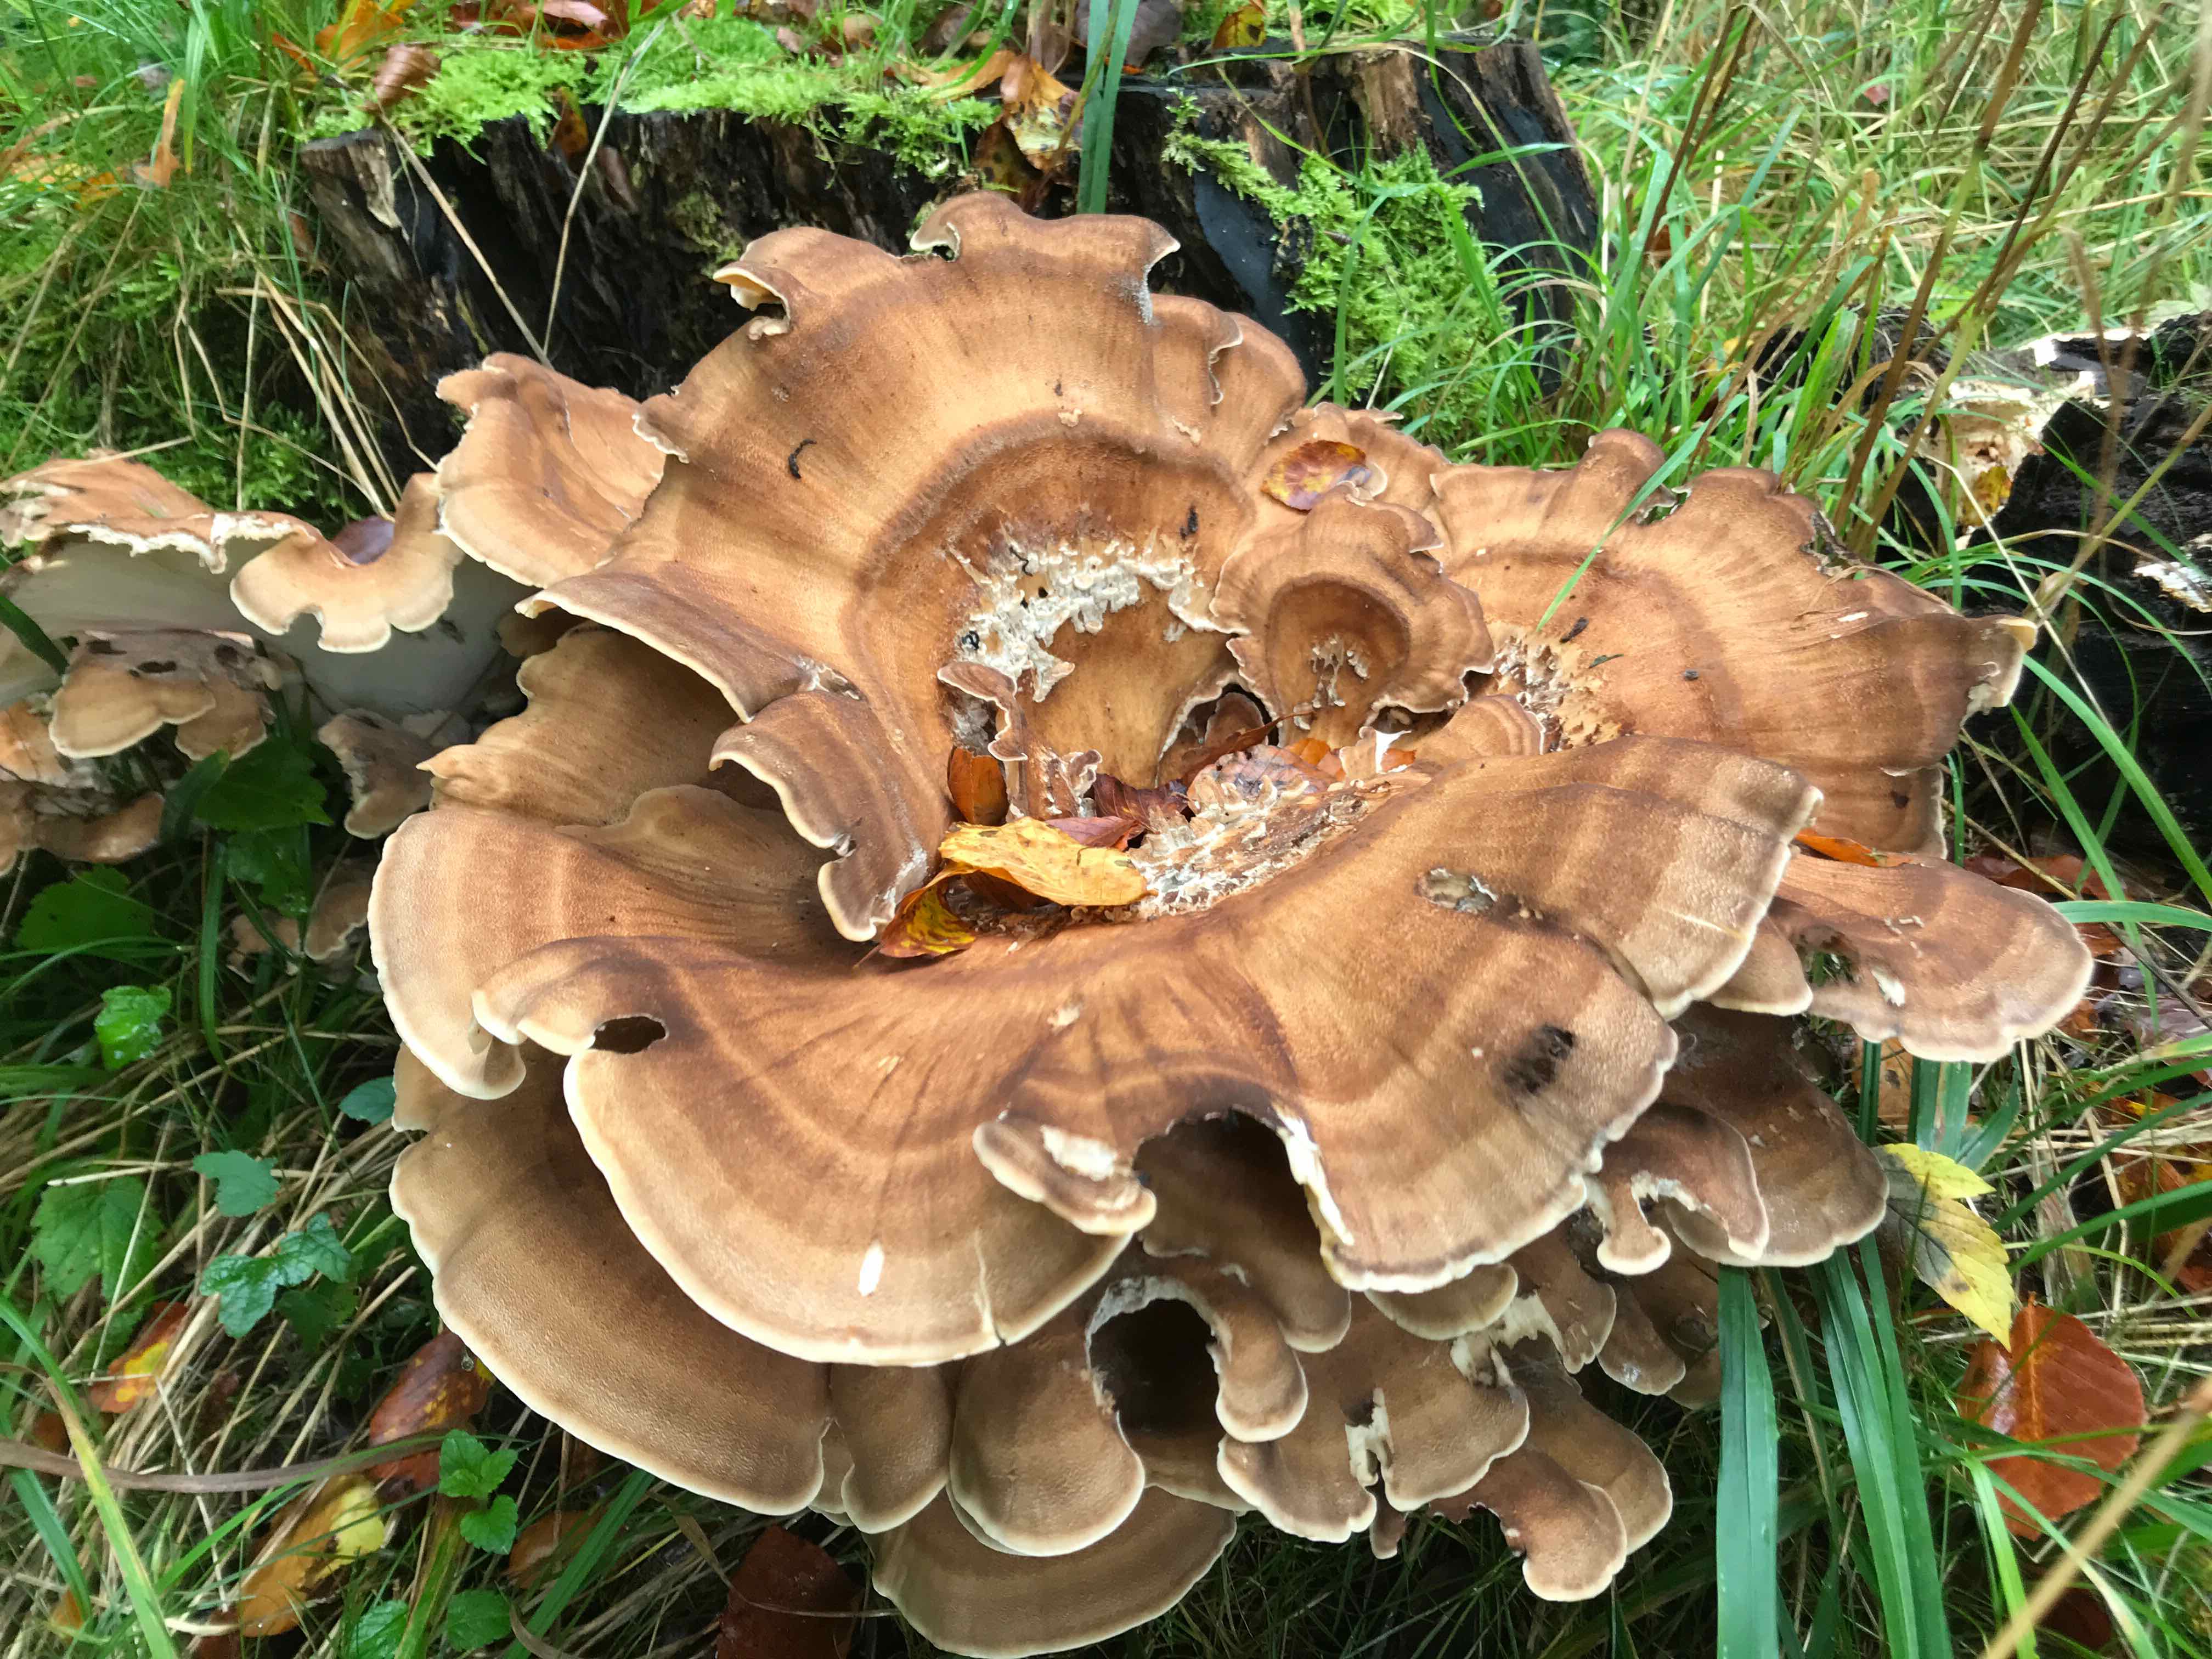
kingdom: Fungi
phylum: Basidiomycota
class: Agaricomycetes
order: Polyporales
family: Meripilaceae
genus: Meripilus
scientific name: Meripilus giganteus
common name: kæmpeporesvamp
